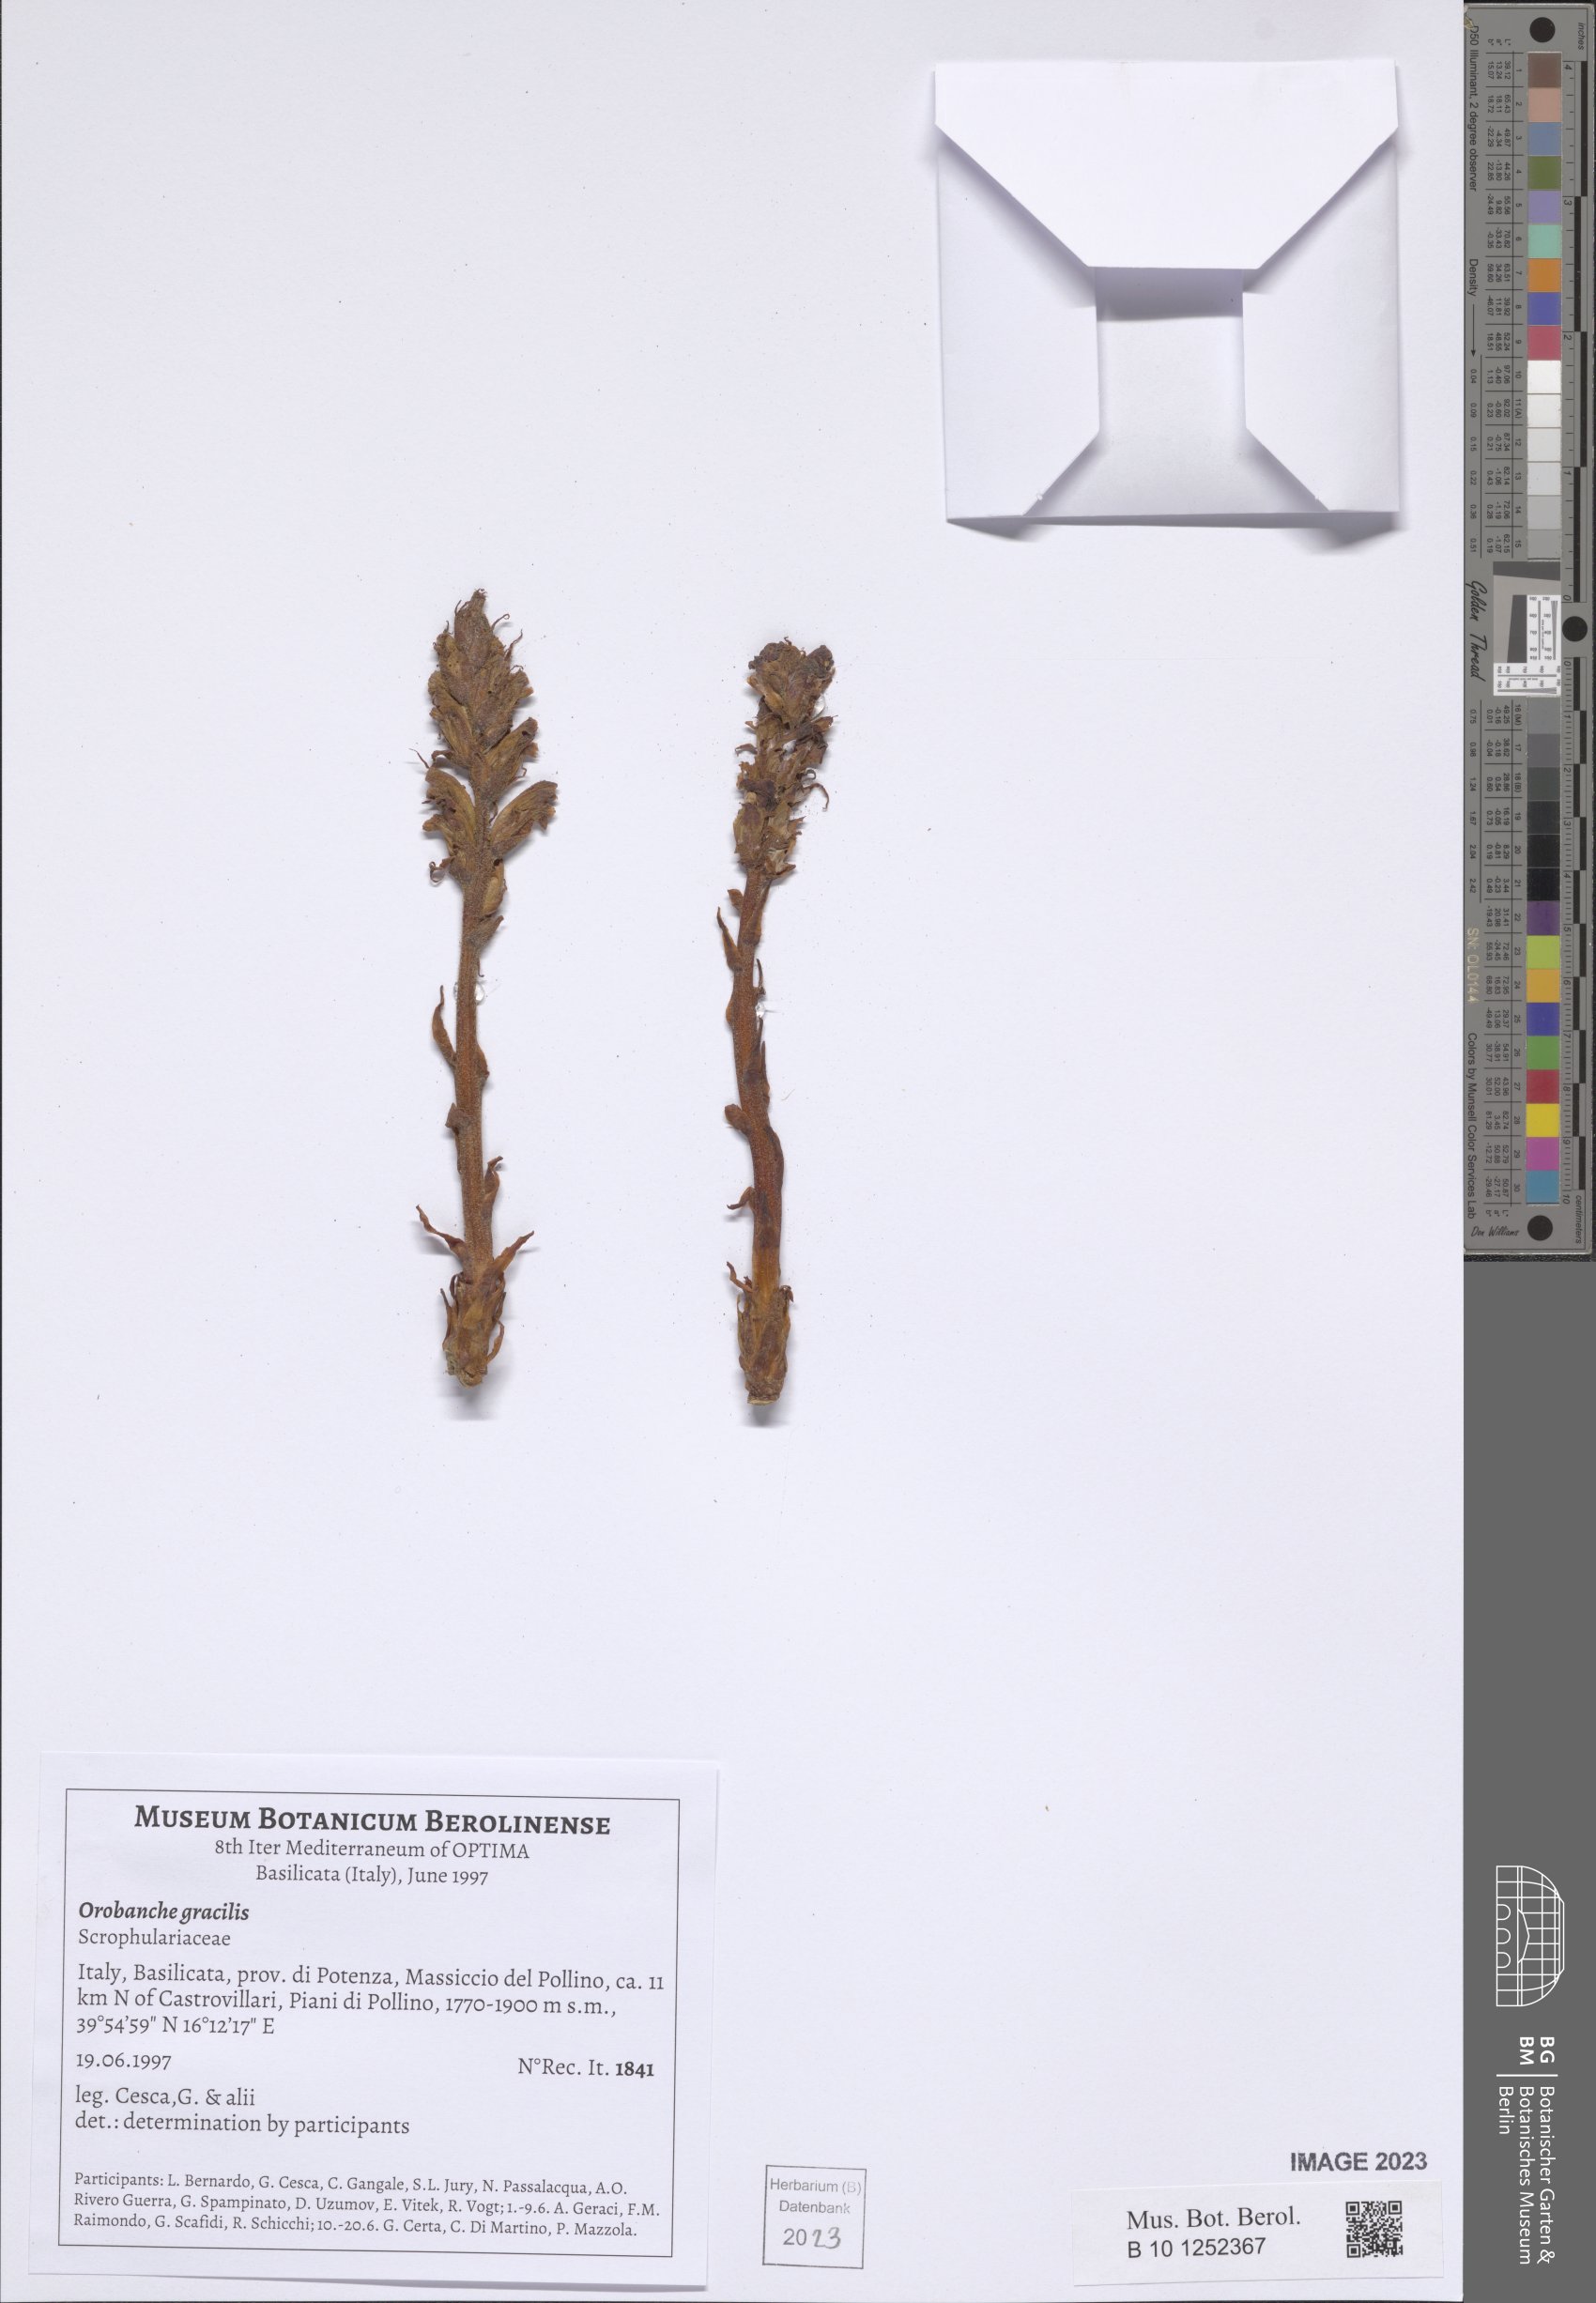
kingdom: Plantae
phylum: Tracheophyta
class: Magnoliopsida
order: Lamiales
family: Orobanchaceae
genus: Orobanche
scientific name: Orobanche gracilis
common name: Slender broomrape
